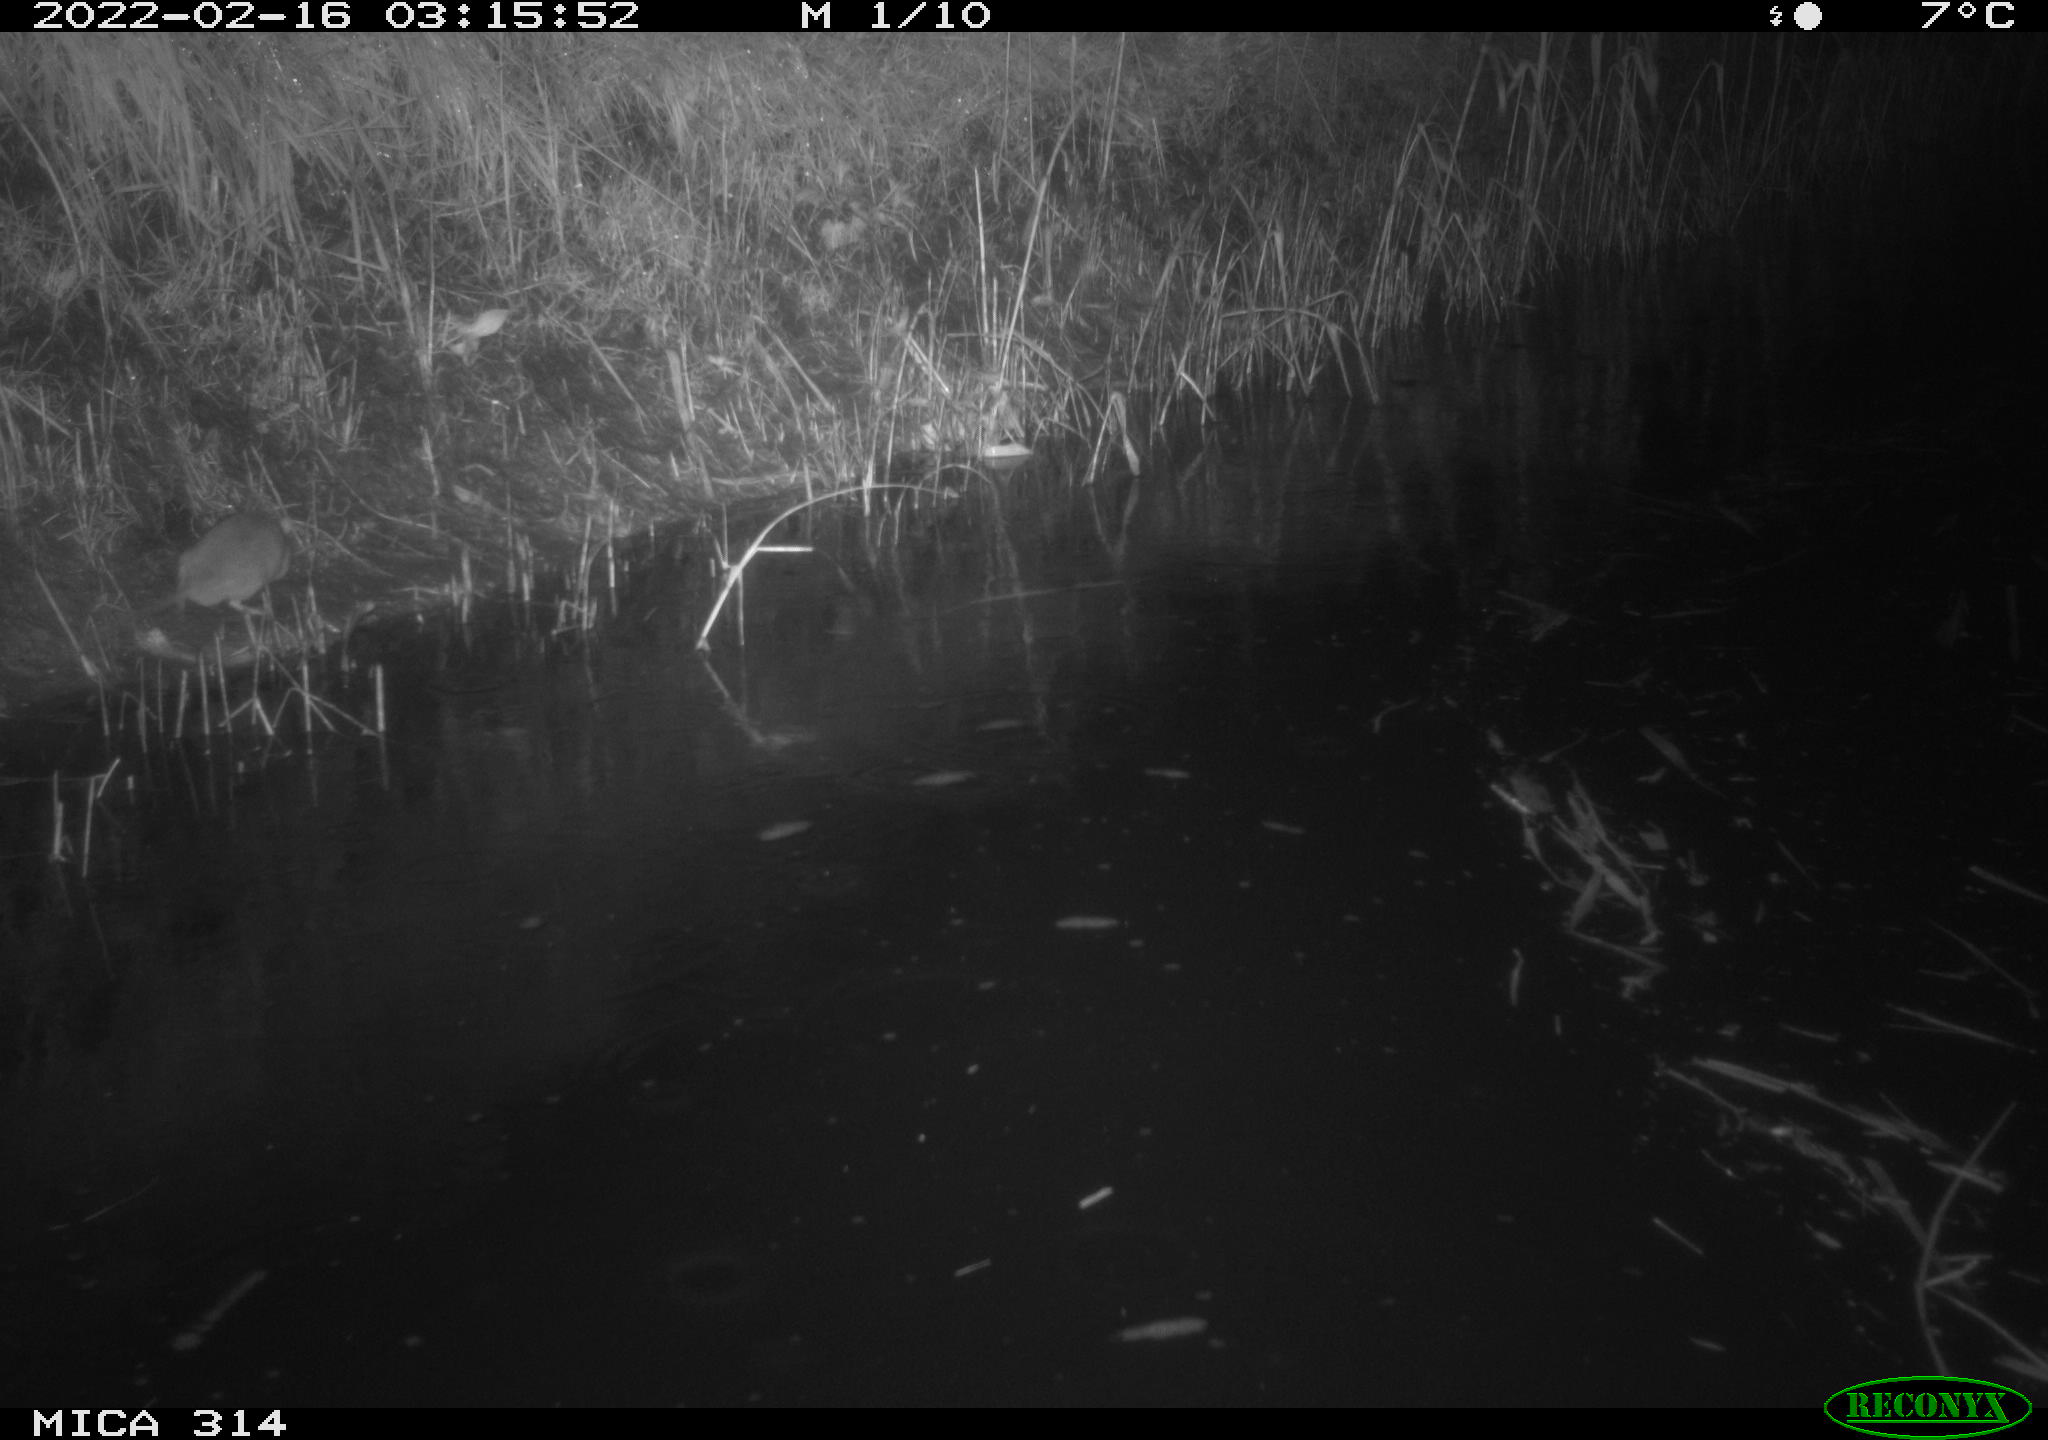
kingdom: Animalia
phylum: Chordata
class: Mammalia
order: Rodentia
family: Muridae
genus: Rattus
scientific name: Rattus norvegicus
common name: Brown rat
